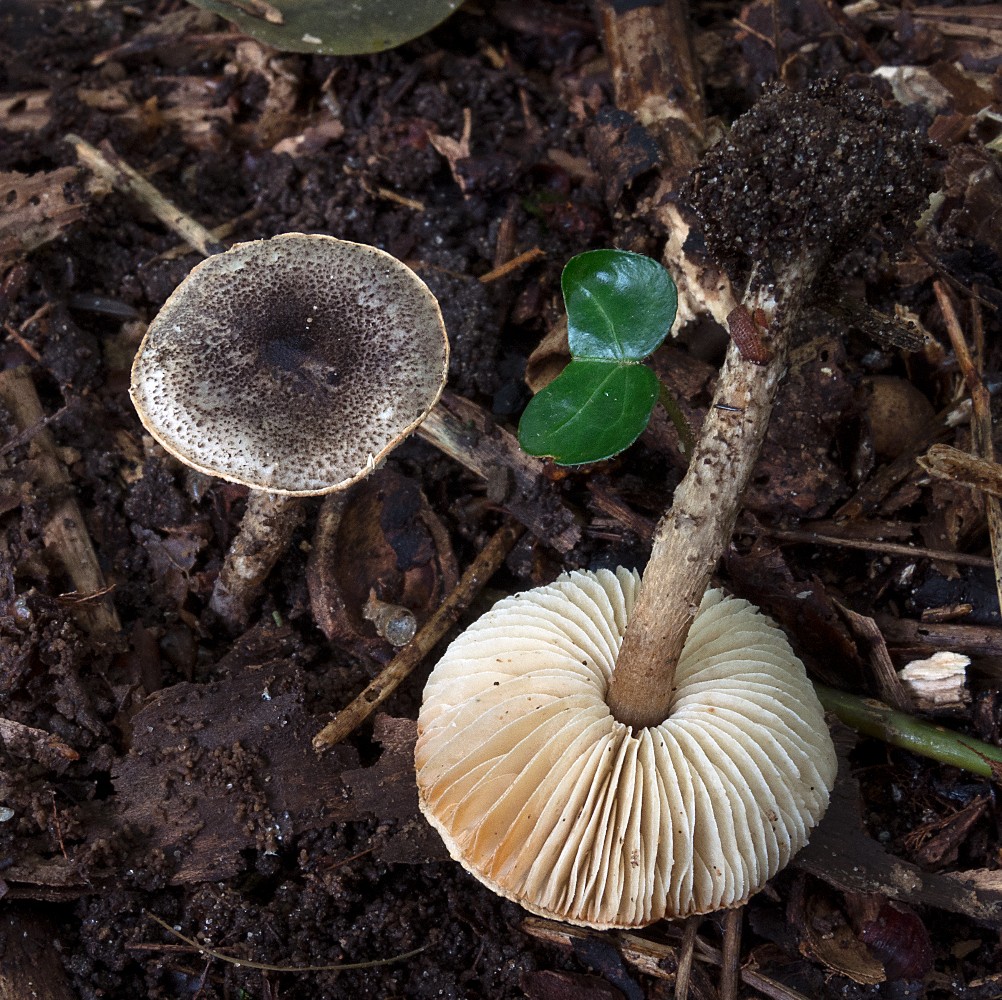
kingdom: Fungi
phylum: Basidiomycota
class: Agaricomycetes
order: Agaricales
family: Agaricaceae
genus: Lepiota
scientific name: Lepiota griseovirens
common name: grågrøn parasolhat
